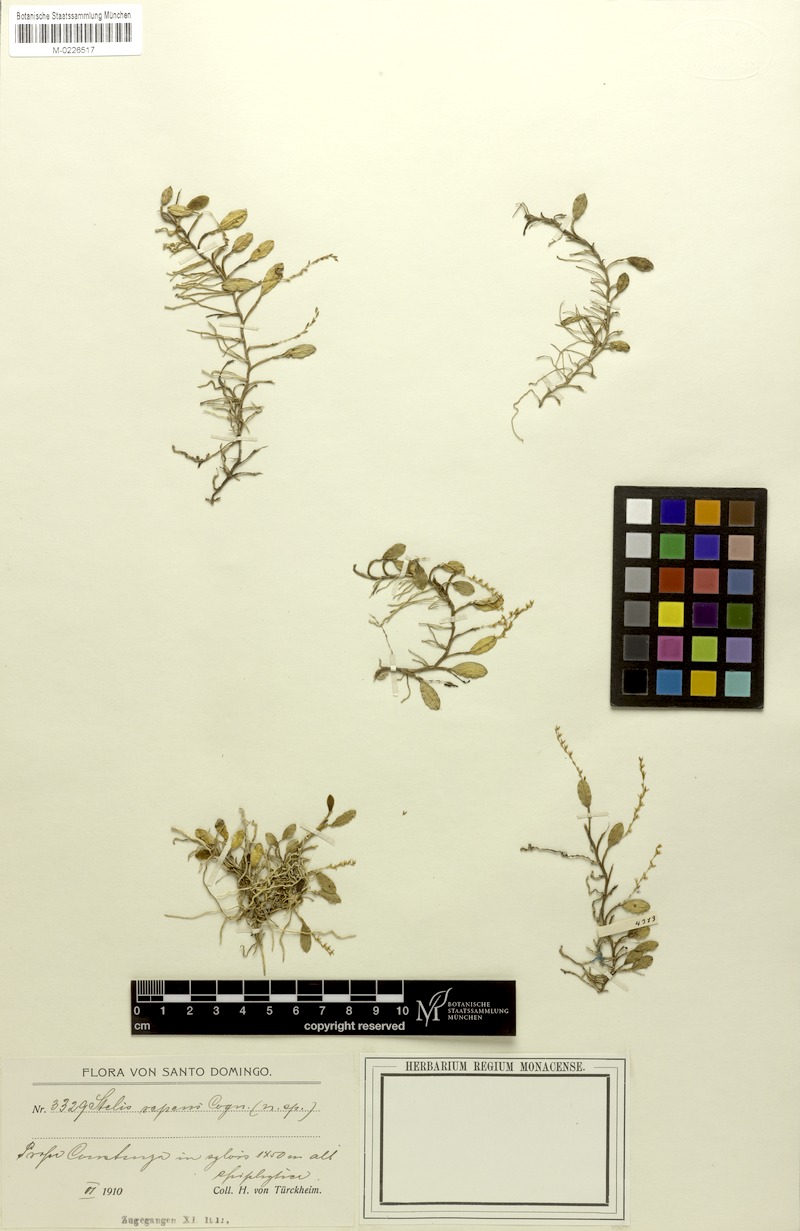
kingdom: Plantae
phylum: Tracheophyta
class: Liliopsida
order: Asparagales
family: Orchidaceae
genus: Stelis
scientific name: Stelis repens
